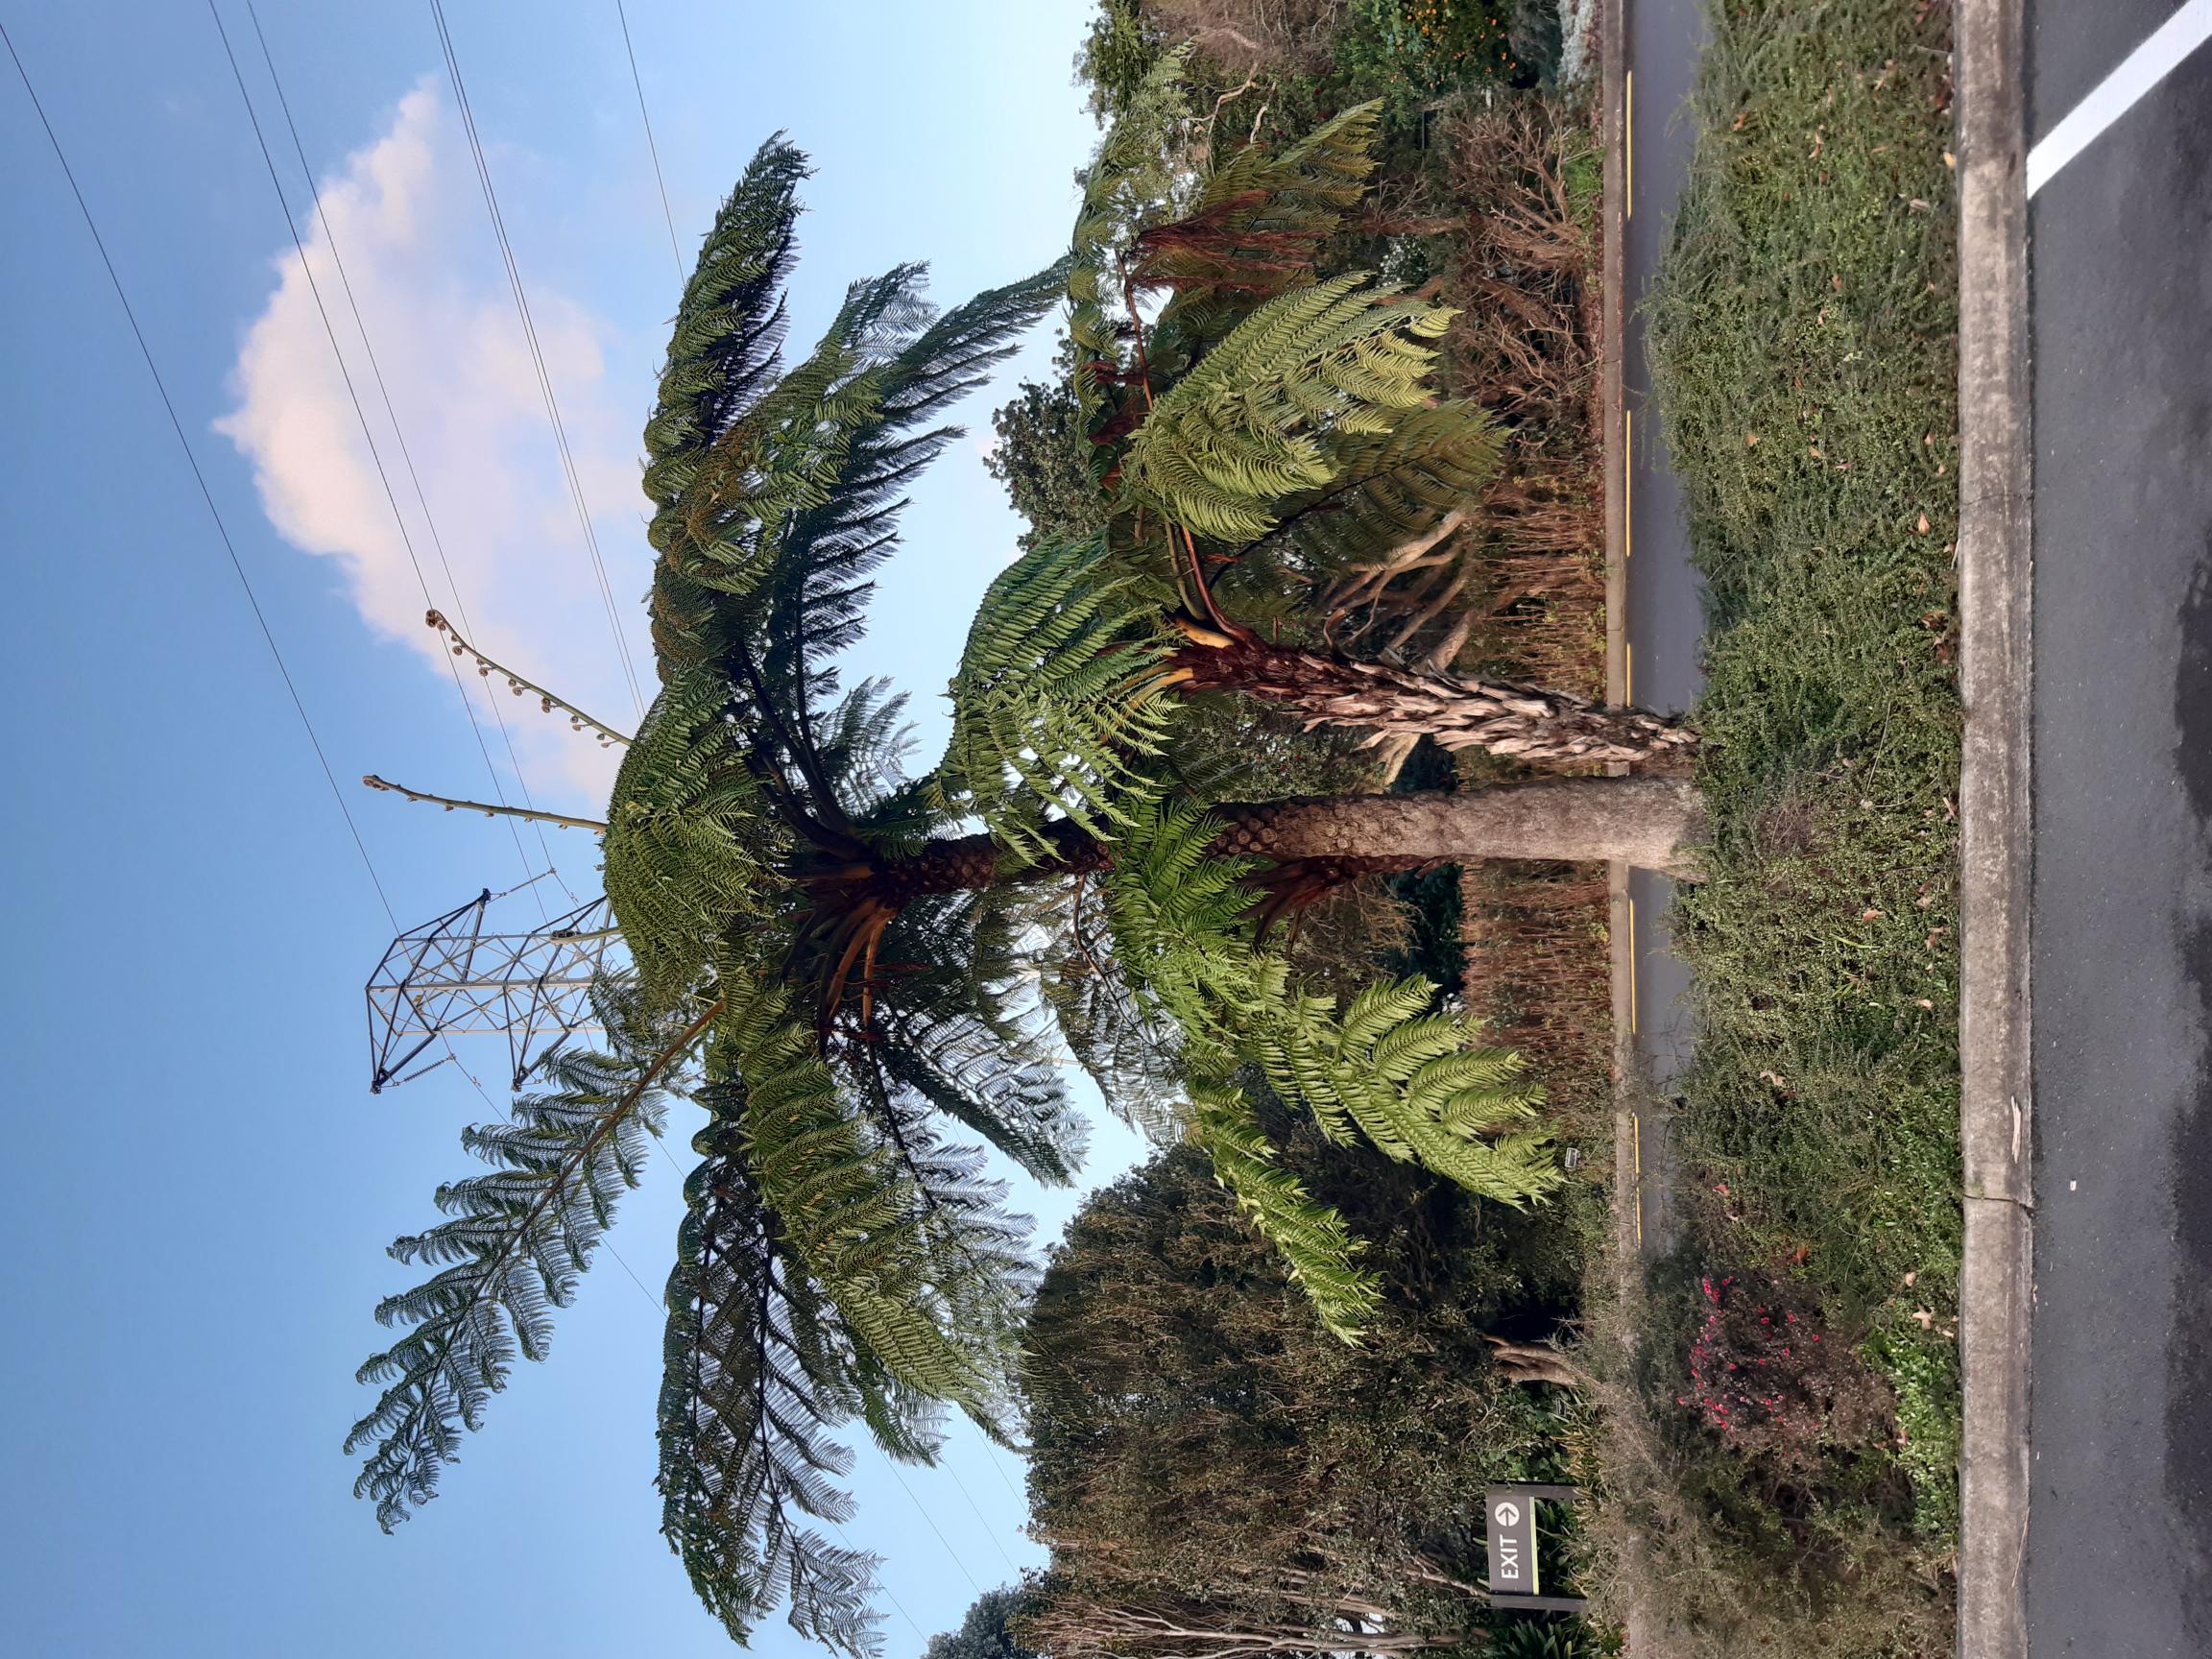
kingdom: Plantae
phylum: Tracheophyta
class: Polypodiopsida
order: Cyatheales
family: Cyatheaceae
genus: Sphaeropteris
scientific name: Sphaeropteris excelsa
